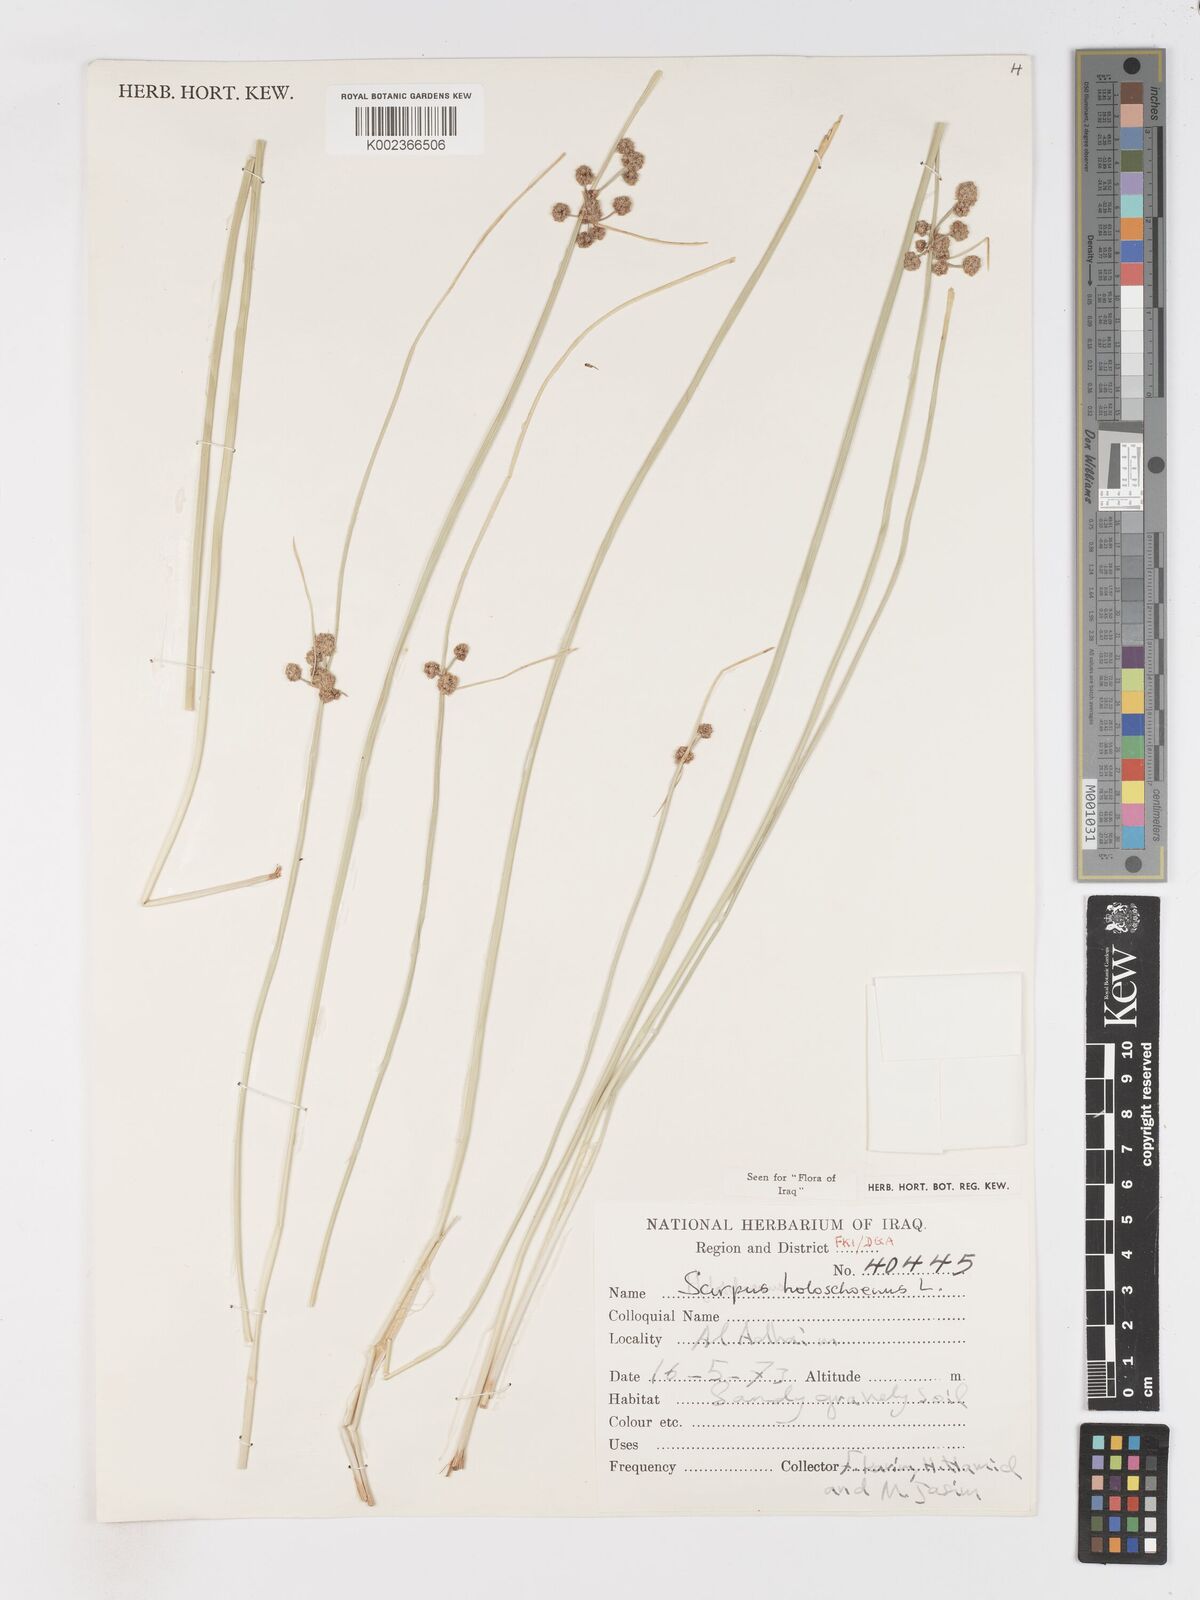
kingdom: Plantae
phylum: Tracheophyta
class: Liliopsida
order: Poales
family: Cyperaceae
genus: Scirpoides
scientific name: Scirpoides holoschoenus
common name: Round-headed club-rush
